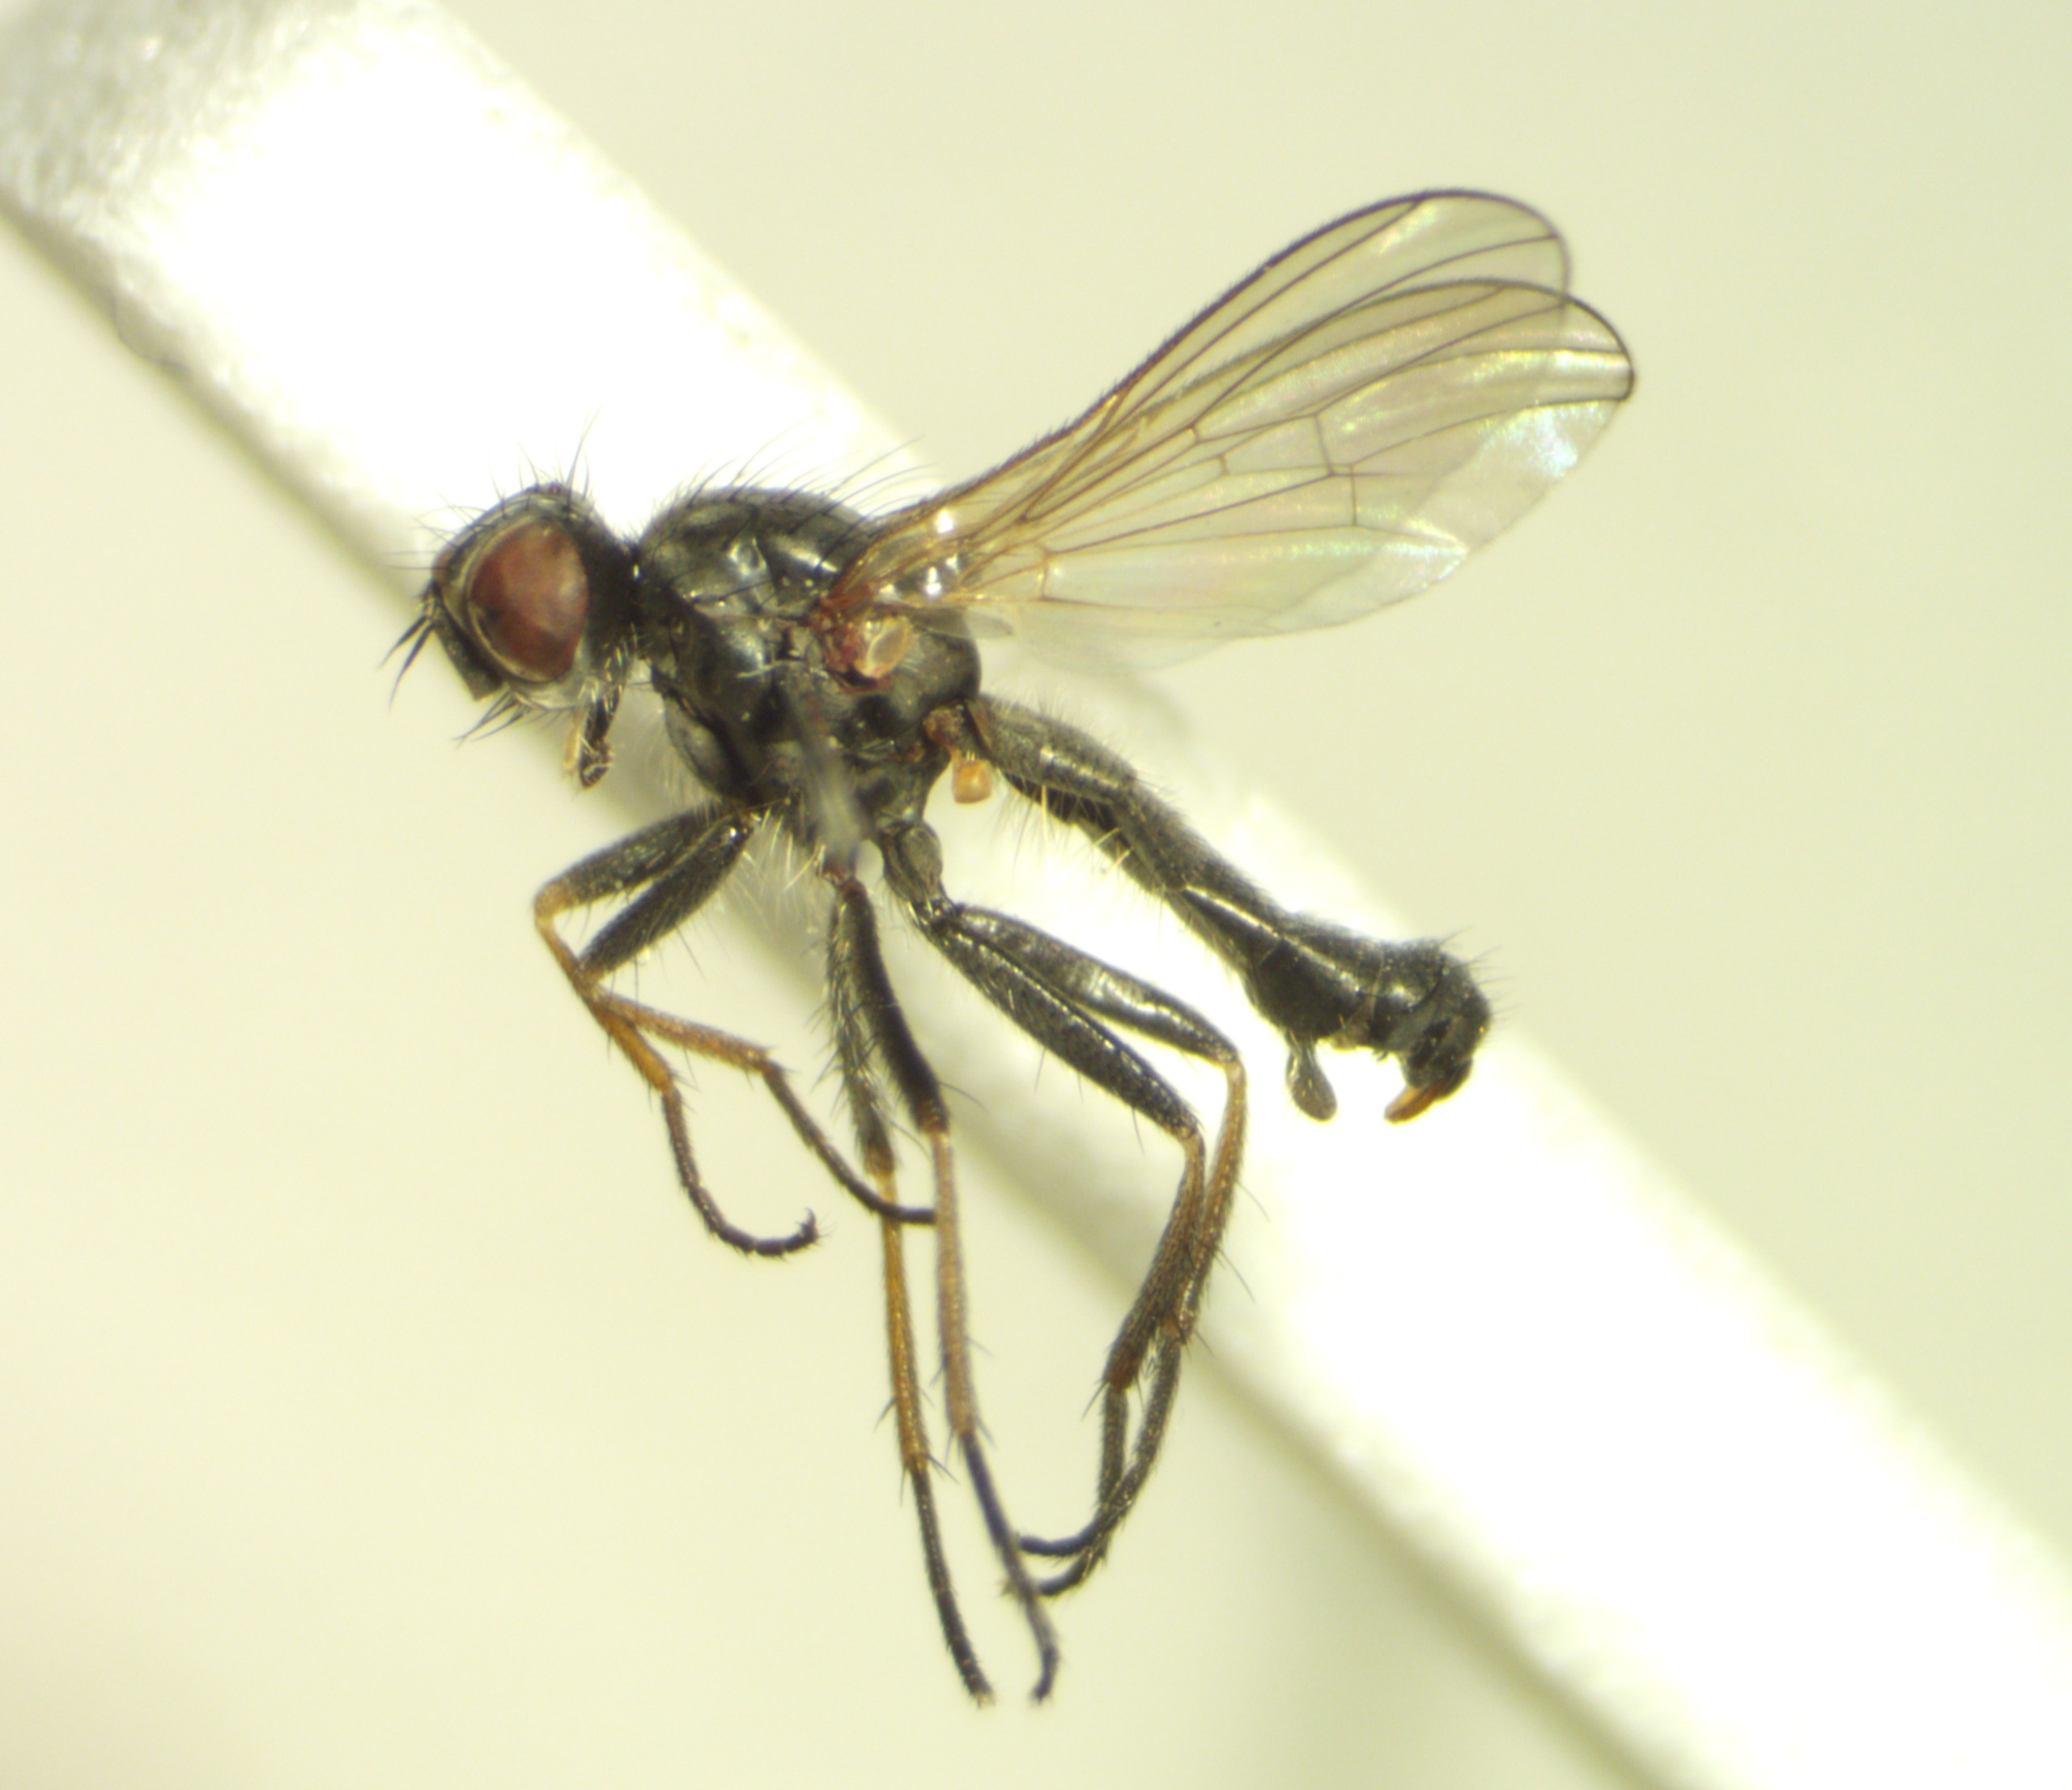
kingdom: Animalia
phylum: Arthropoda
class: Insecta
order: Diptera
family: Scathophagidae
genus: Amaurosoma
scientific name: Amaurosoma fasciatum
